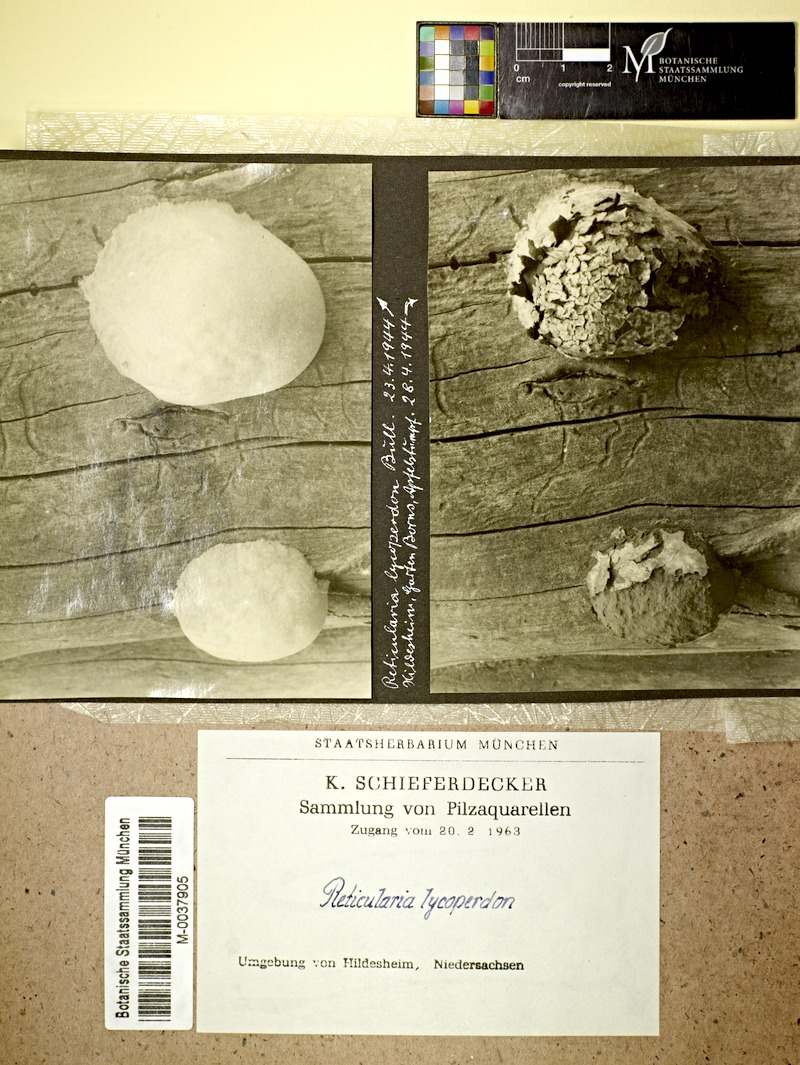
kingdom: Protozoa
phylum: Mycetozoa
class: Myxomycetes
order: Cribrariales
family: Tubiferaceae
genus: Reticularia
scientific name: Reticularia lycoperdon
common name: False puffball
